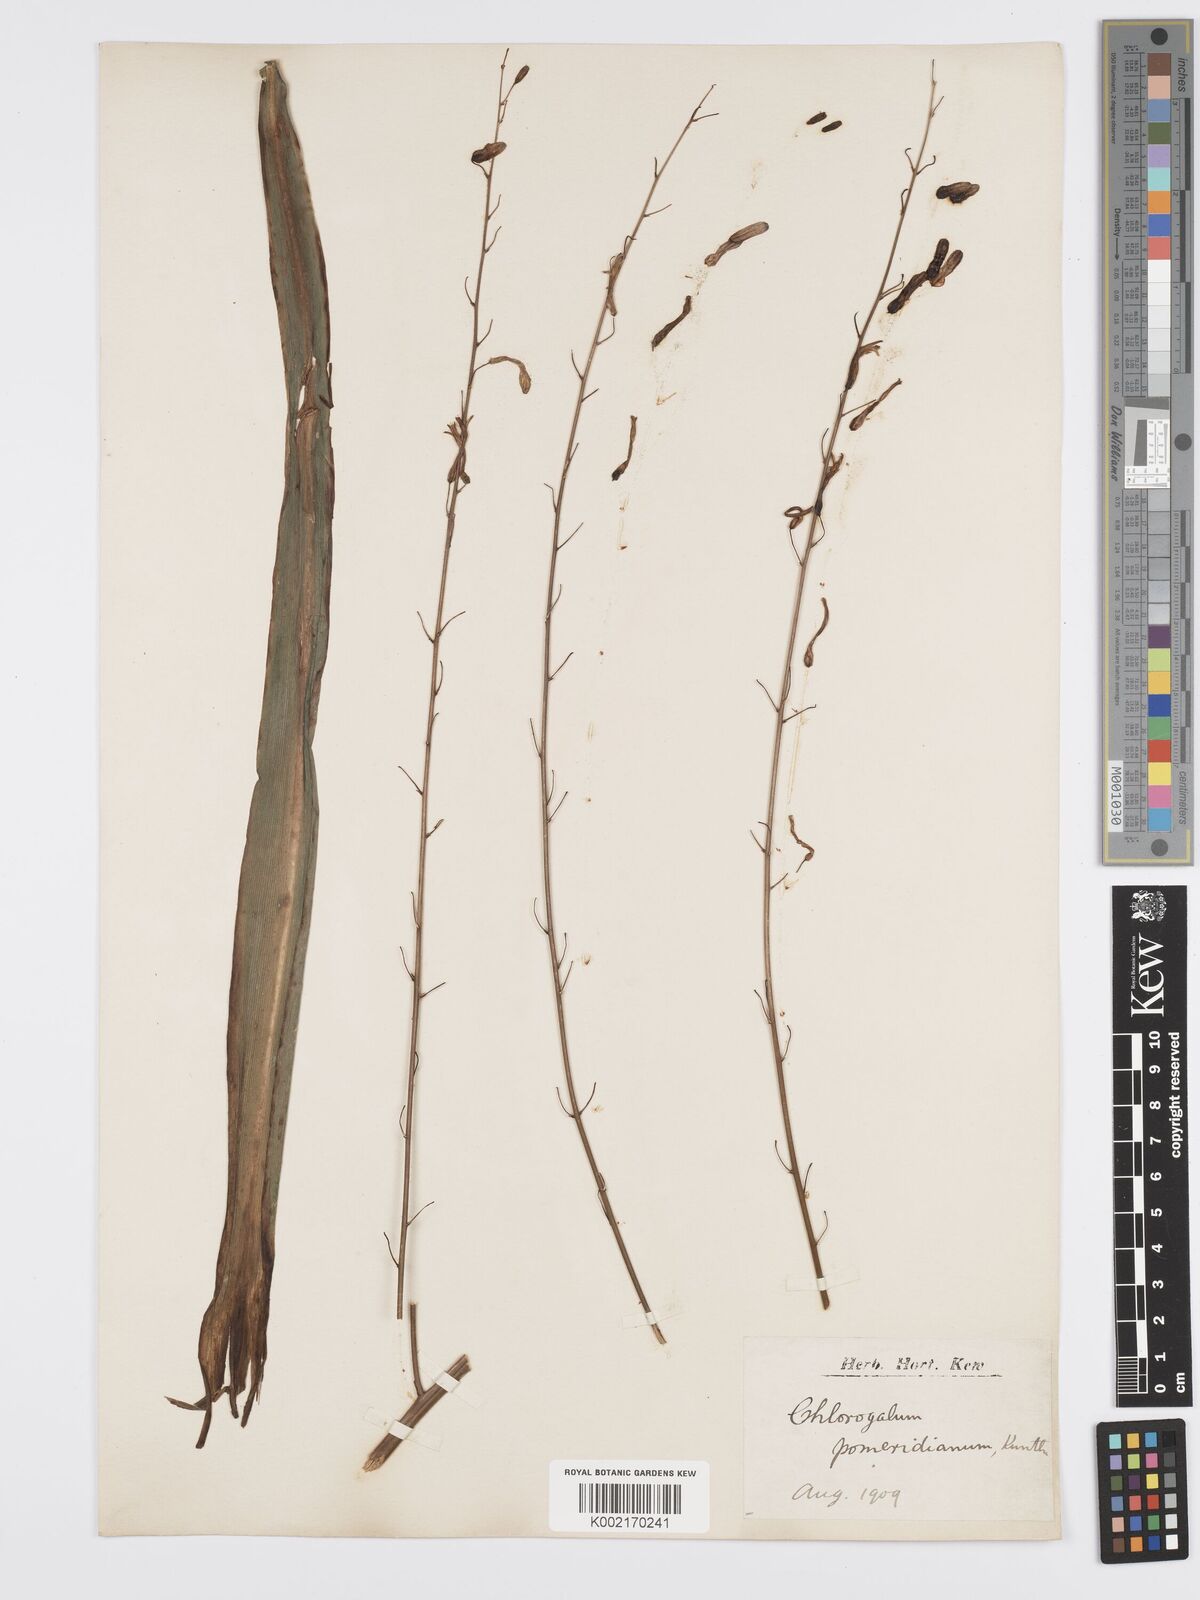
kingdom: Plantae
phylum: Tracheophyta
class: Liliopsida
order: Asparagales
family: Asparagaceae
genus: Chlorogalum
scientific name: Chlorogalum pomeridianum
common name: Amole
